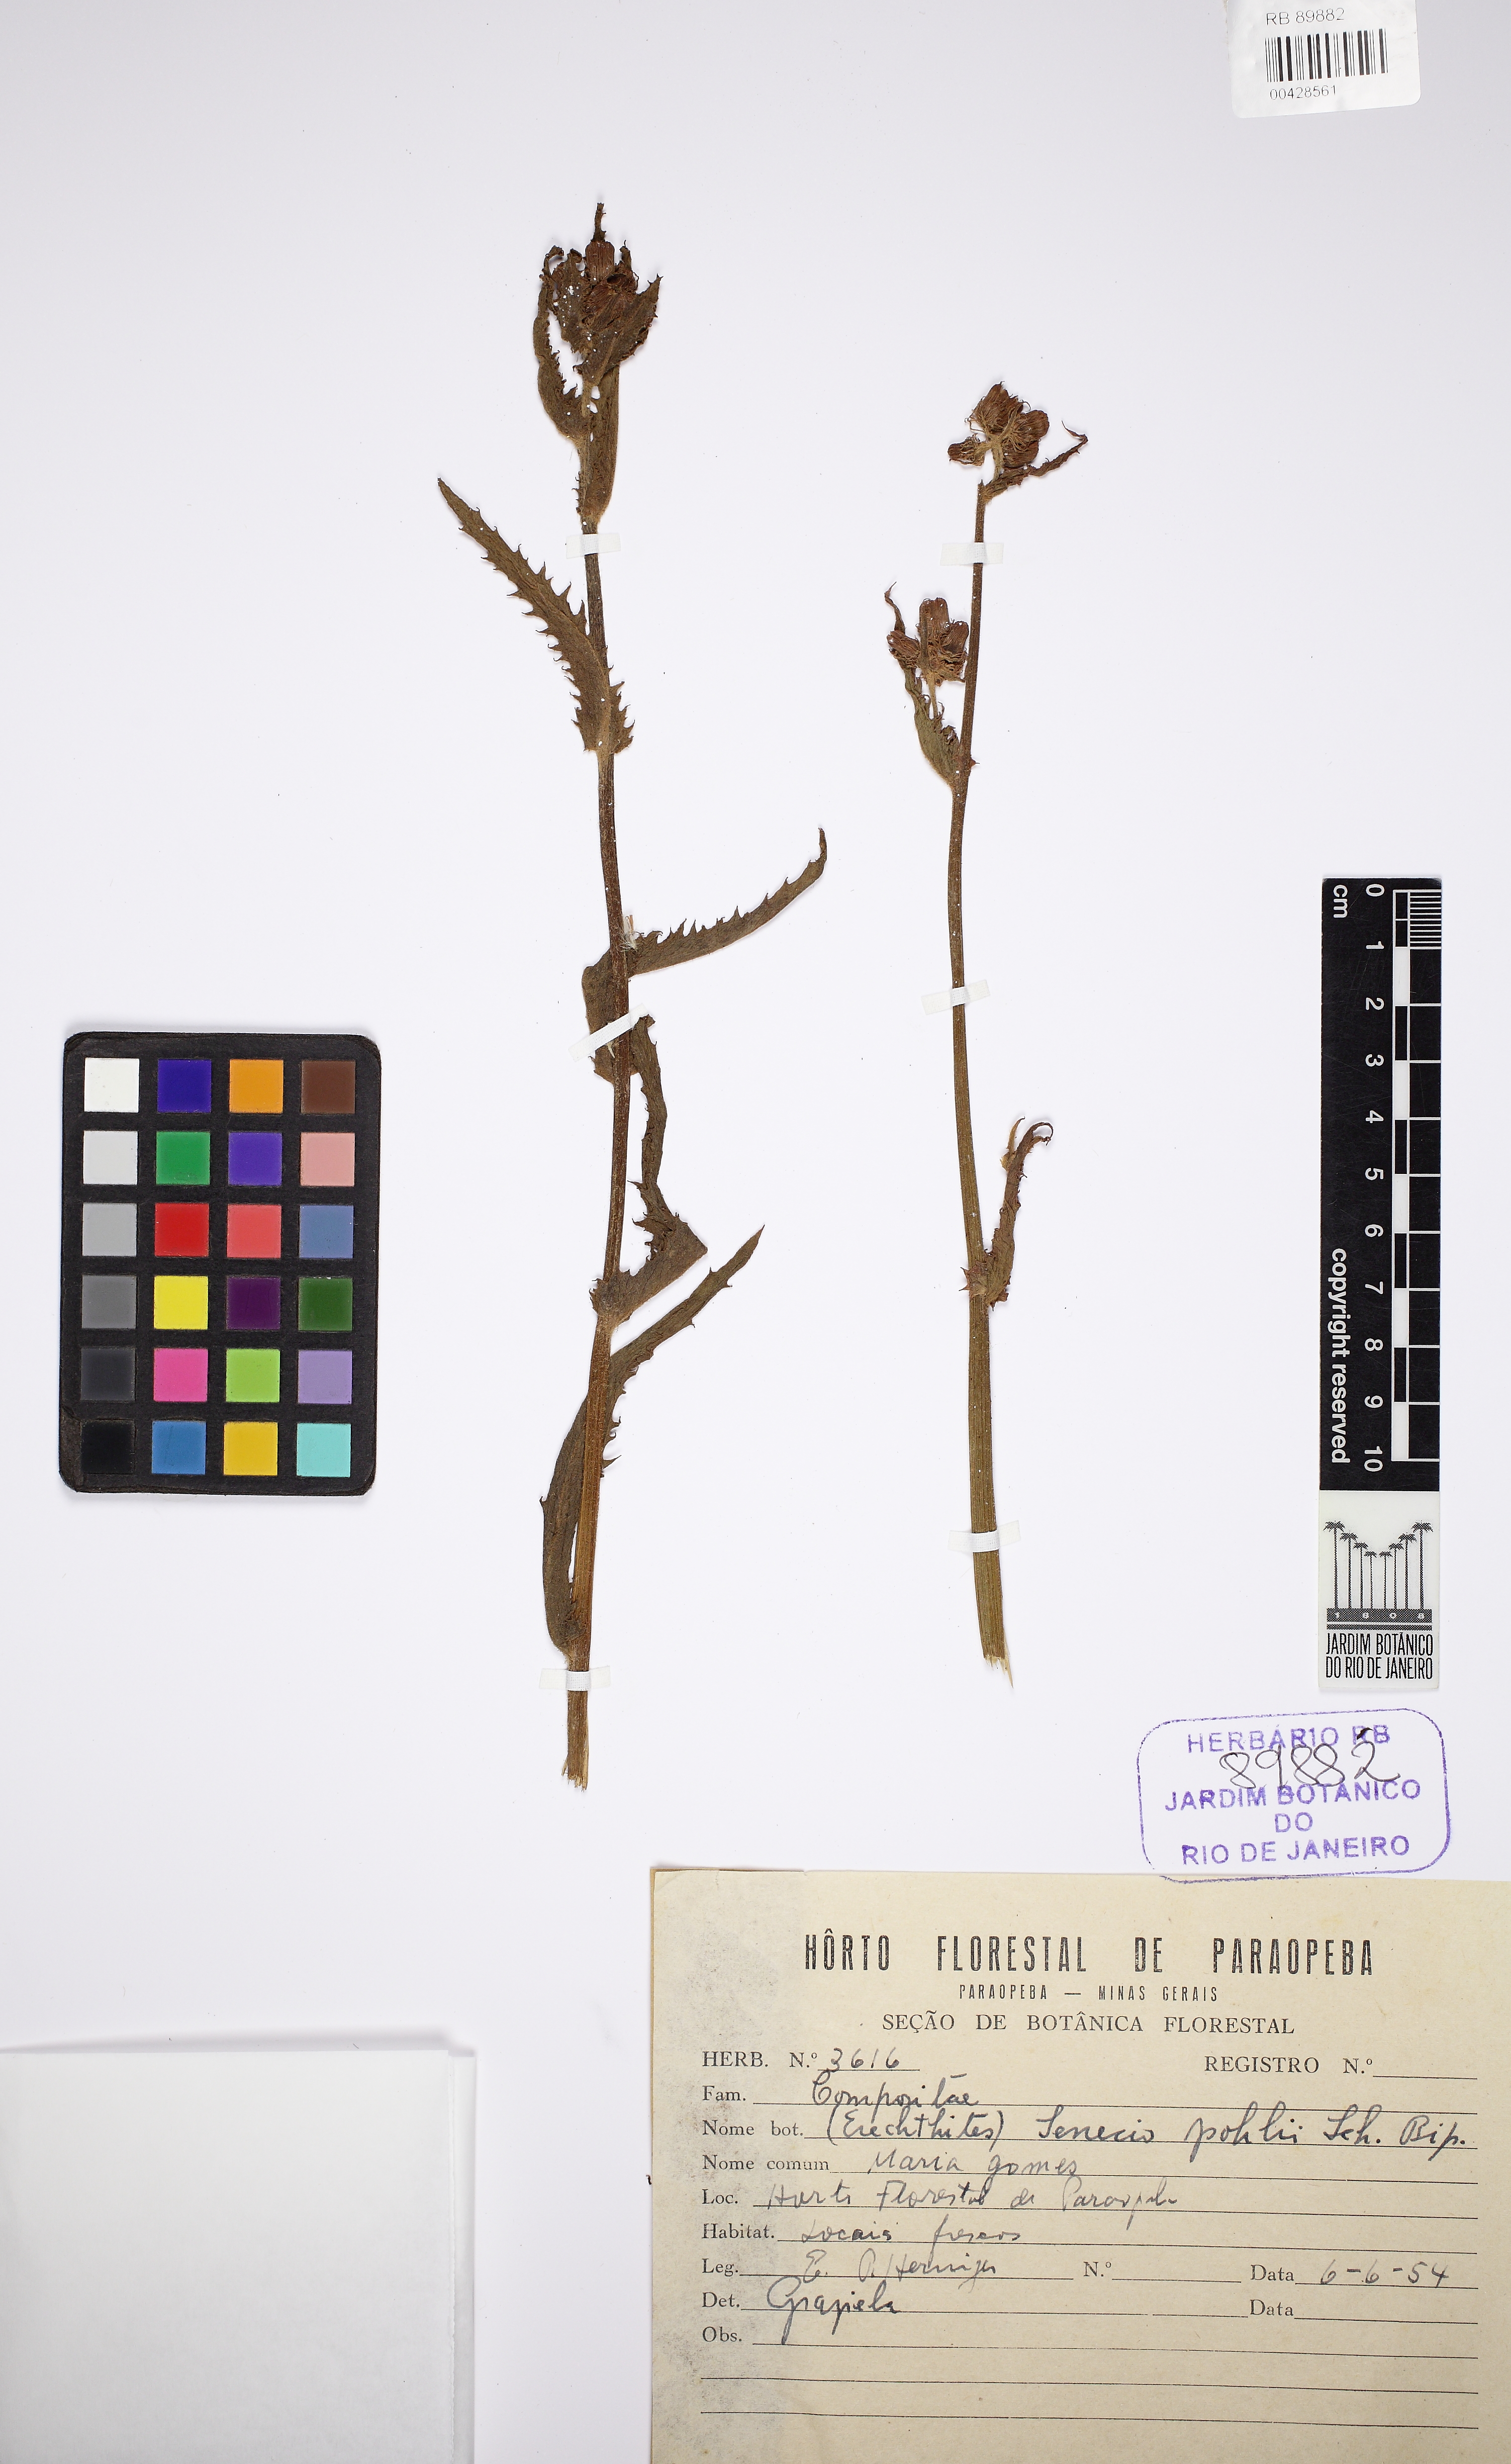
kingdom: Plantae
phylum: Tracheophyta
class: Magnoliopsida
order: Asterales
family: Asteraceae
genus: Pseudogynoxys
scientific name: Pseudogynoxys pohlii
